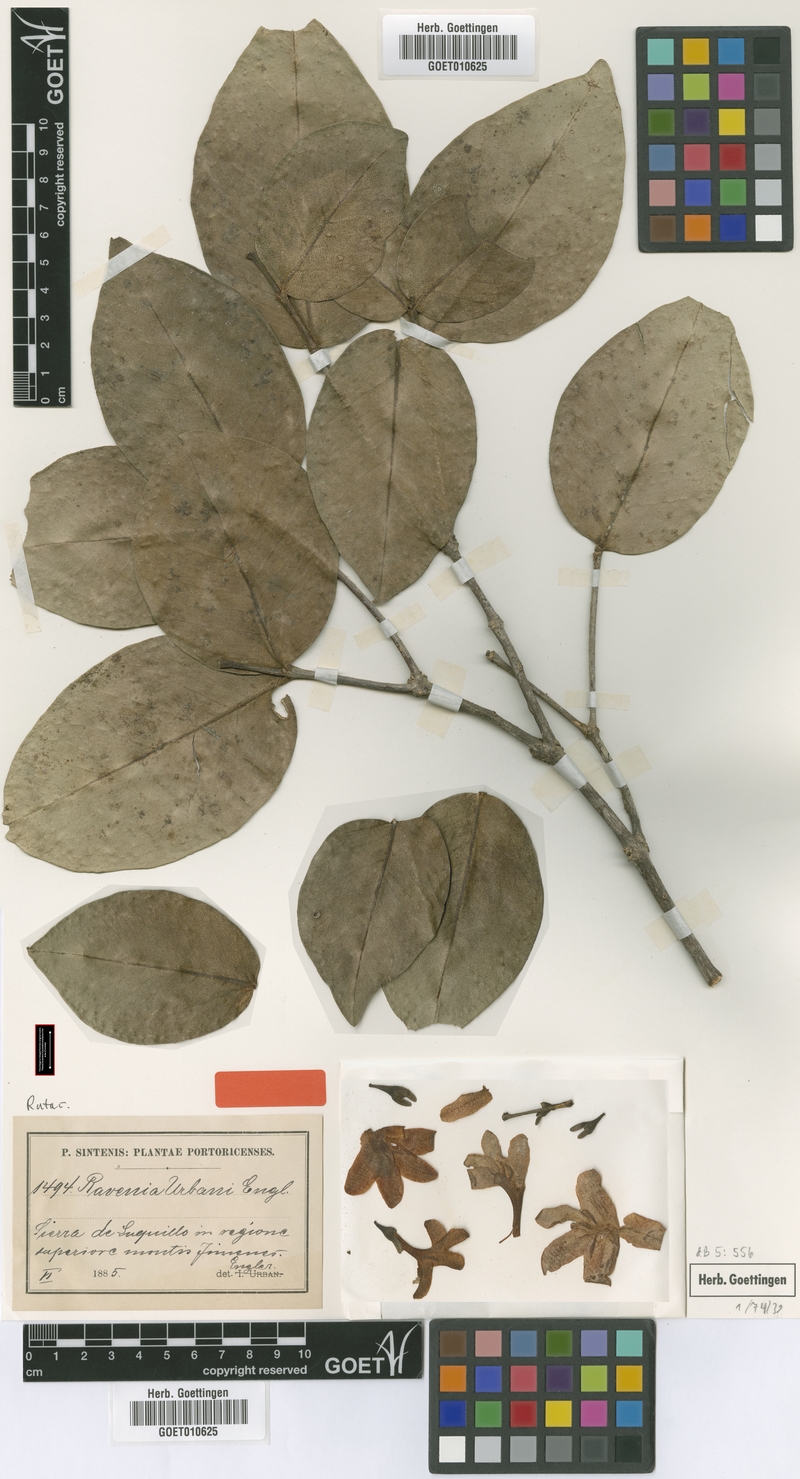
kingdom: Plantae
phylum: Tracheophyta
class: Magnoliopsida
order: Sapindales
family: Rutaceae
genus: Ravenia
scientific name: Ravenia urbanii
